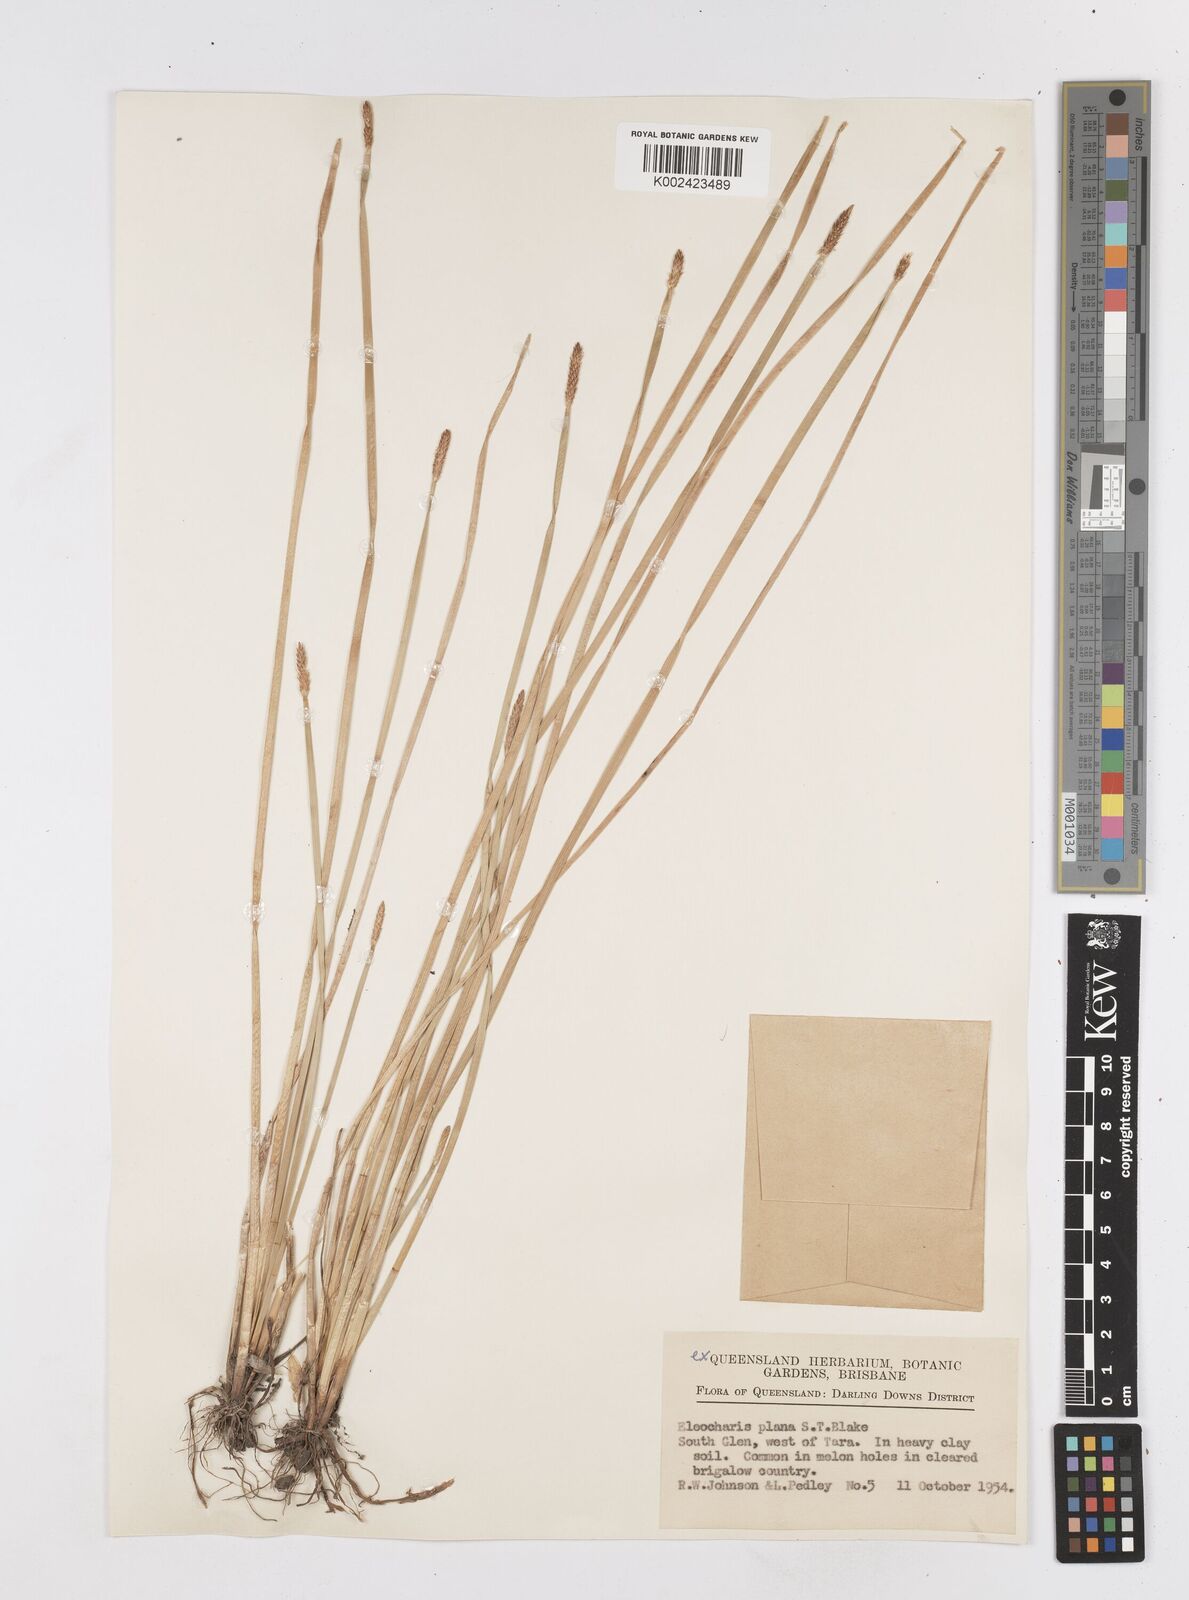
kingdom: Plantae
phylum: Tracheophyta
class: Liliopsida
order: Poales
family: Cyperaceae
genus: Eleocharis
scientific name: Eleocharis plana
